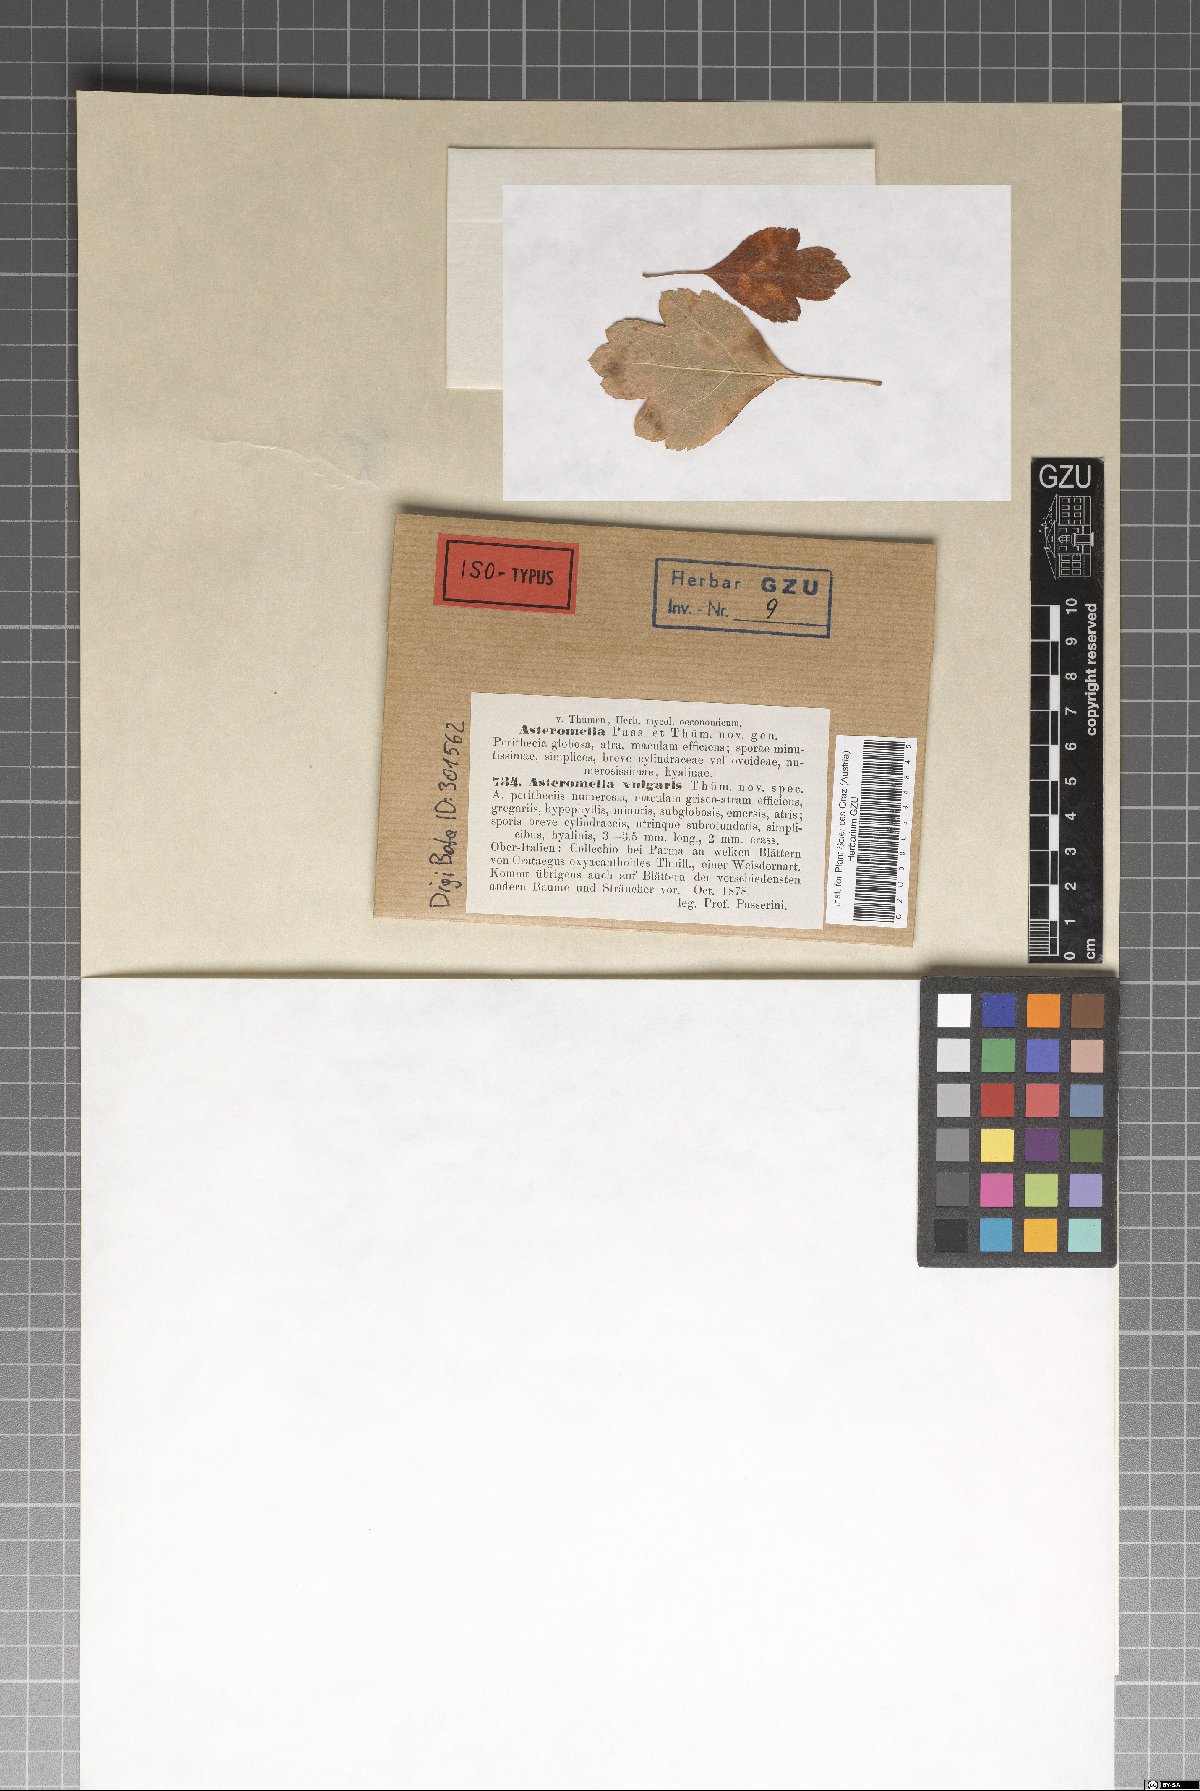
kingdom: Fungi
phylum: Ascomycota
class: Dothideomycetes
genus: Asteromella
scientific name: Asteromella vulgaris
